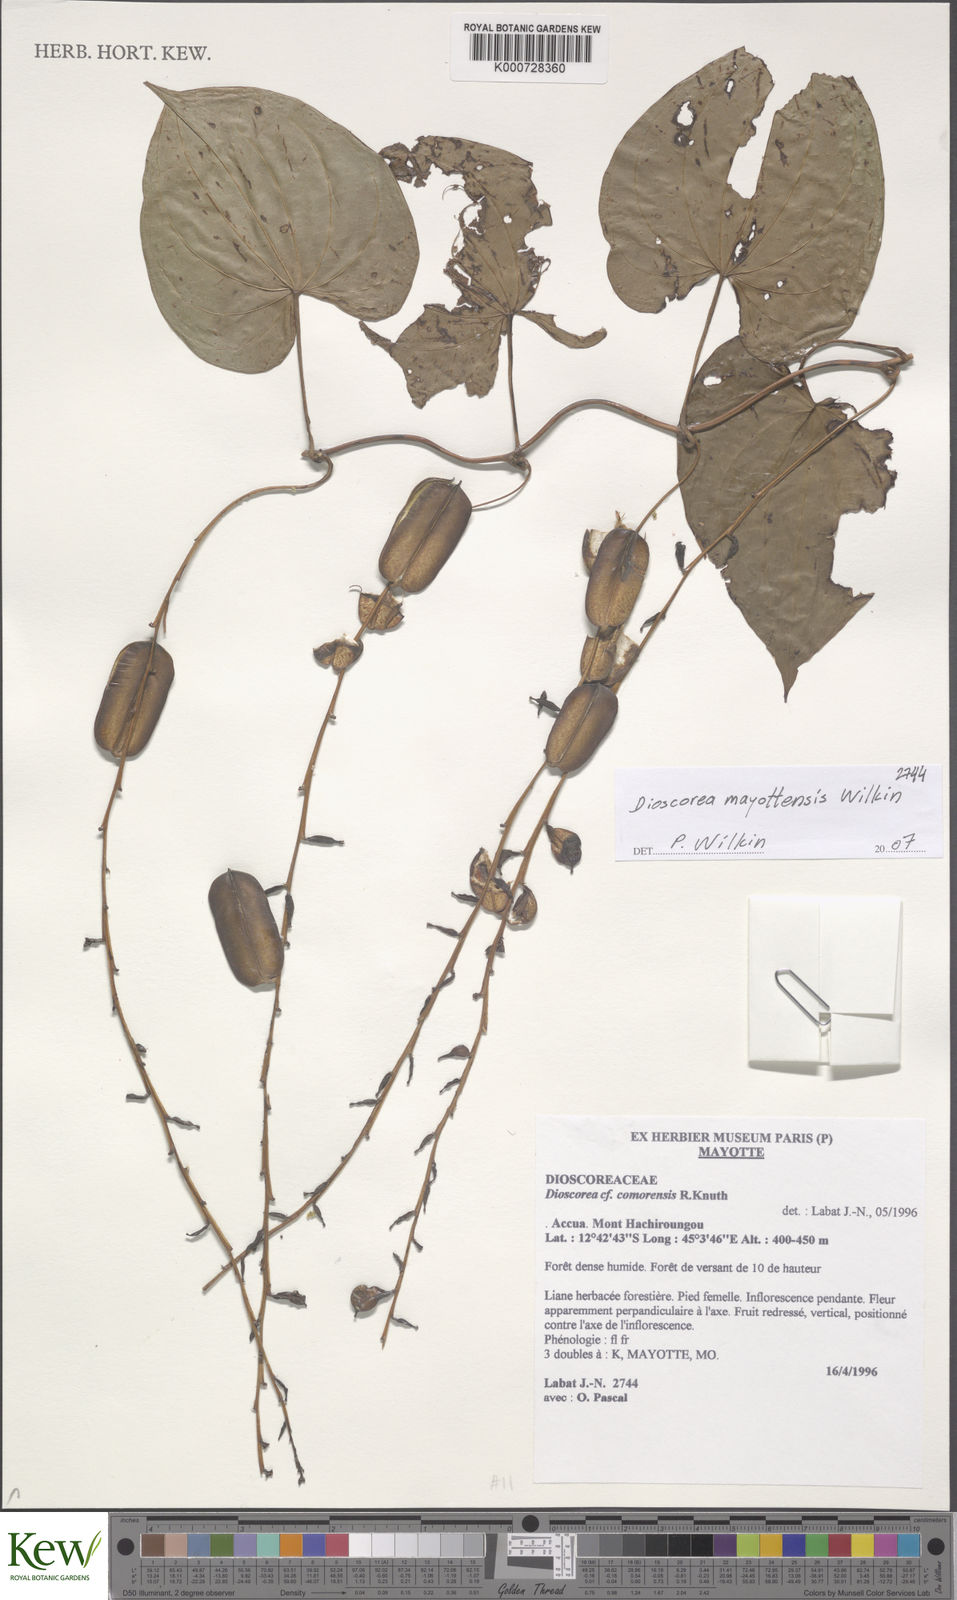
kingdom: Plantae
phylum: Tracheophyta
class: Liliopsida
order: Dioscoreales
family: Dioscoreaceae
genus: Dioscorea
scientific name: Dioscorea mayottensis
